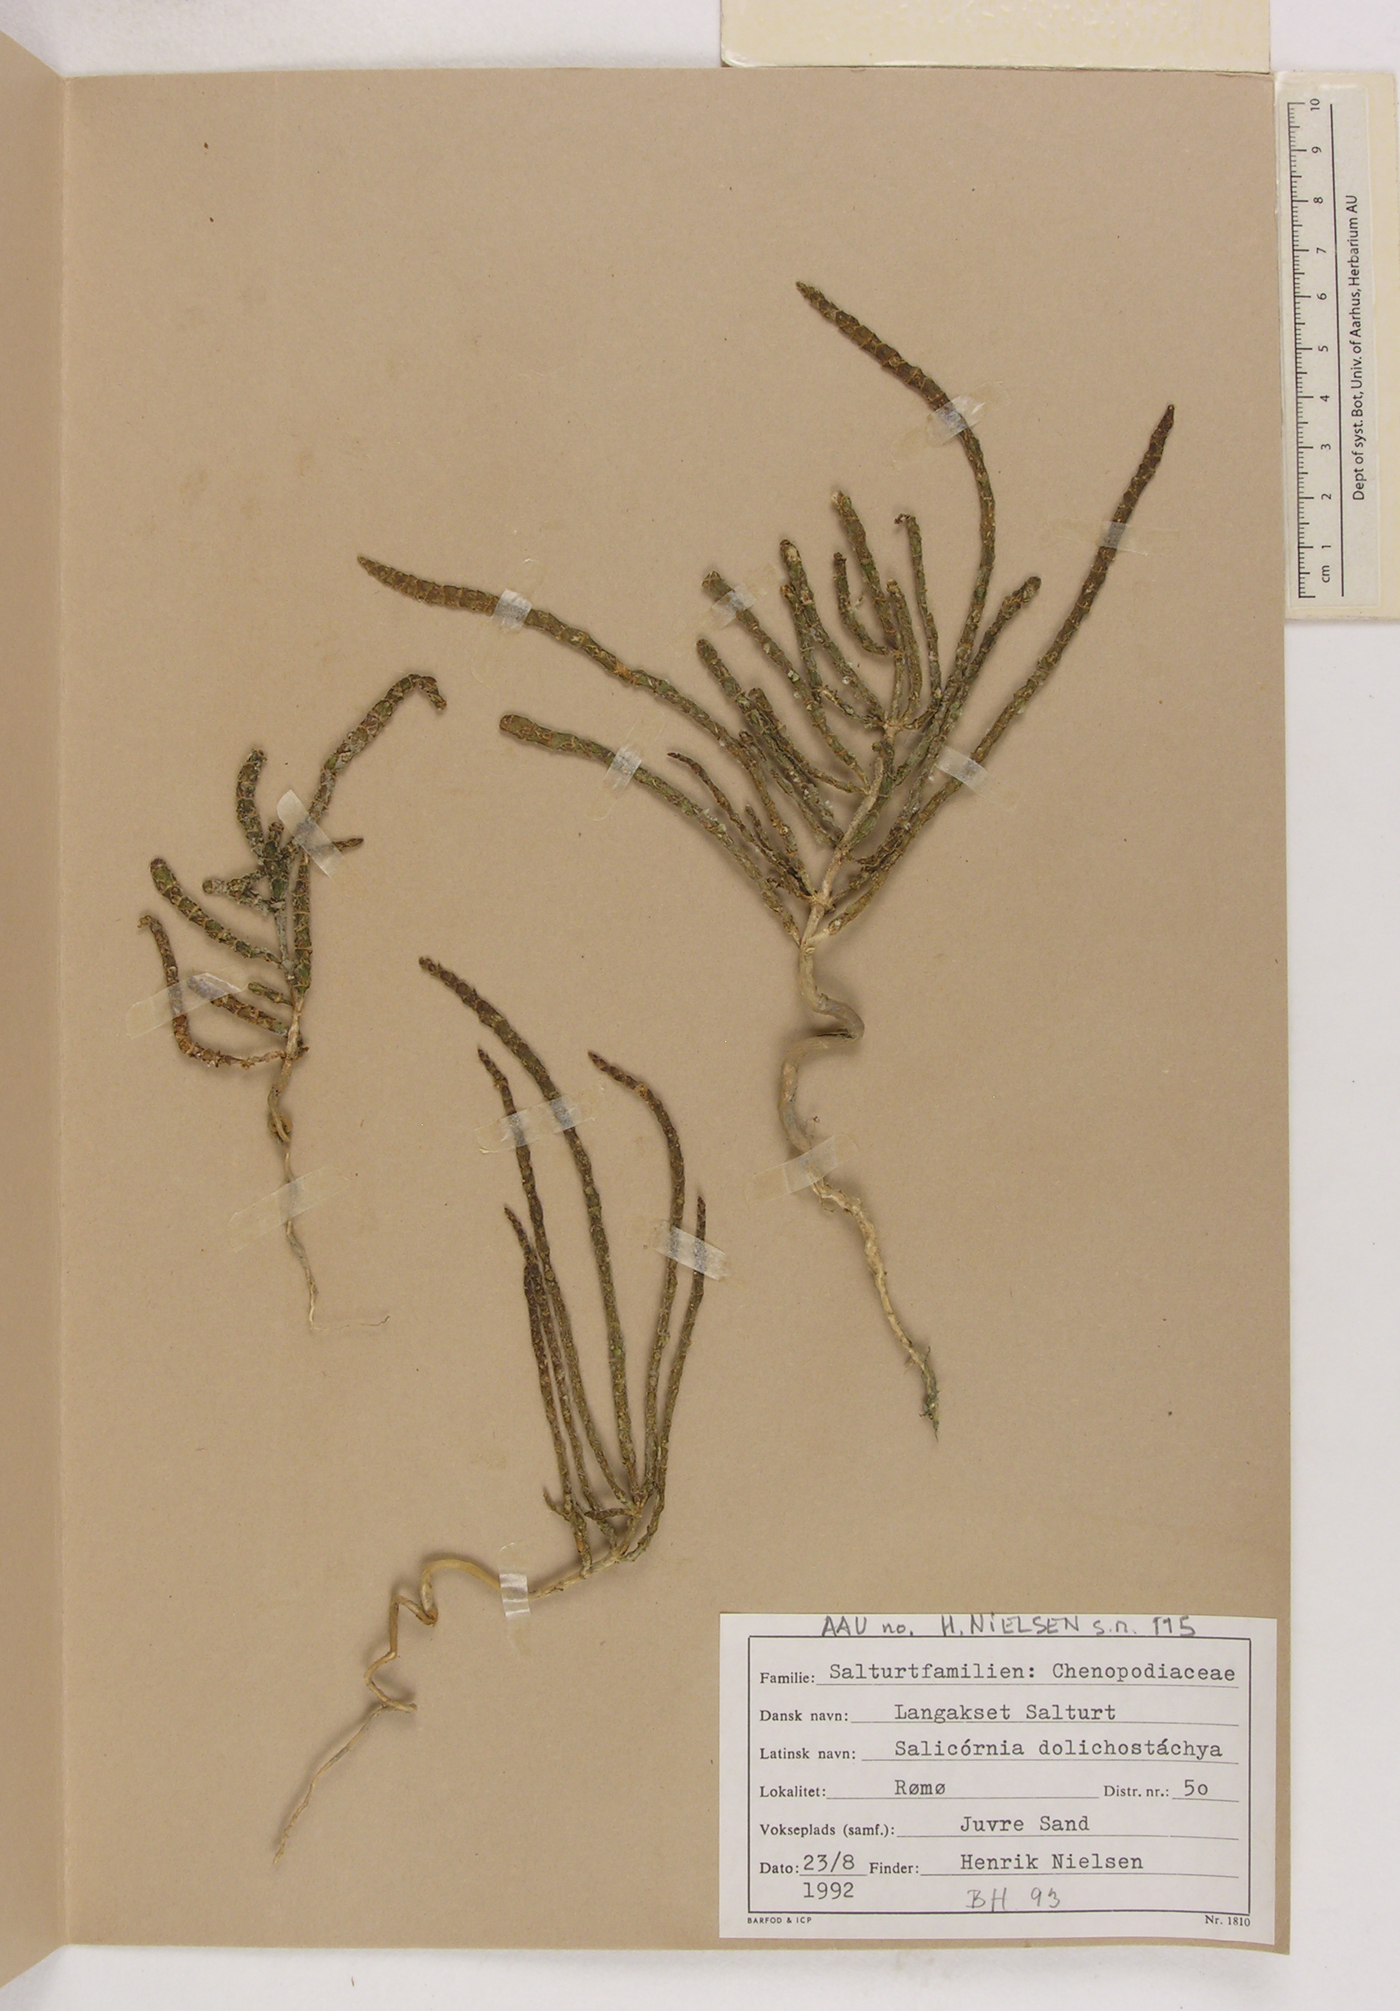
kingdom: Plantae
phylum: Tracheophyta
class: Magnoliopsida
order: Caryophyllales
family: Amaranthaceae
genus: Salicornia
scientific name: Salicornia procumbens
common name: Long-spiked glasswort
